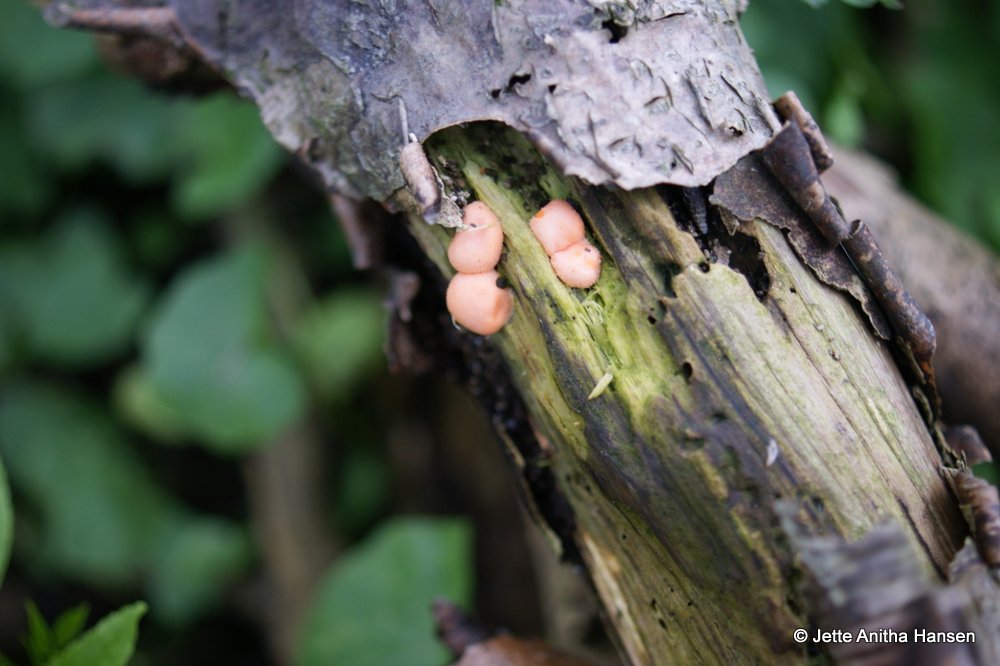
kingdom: Protozoa
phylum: Mycetozoa
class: Myxomycetes
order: Cribrariales
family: Tubiferaceae
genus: Lycogala
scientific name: Lycogala epidendrum
